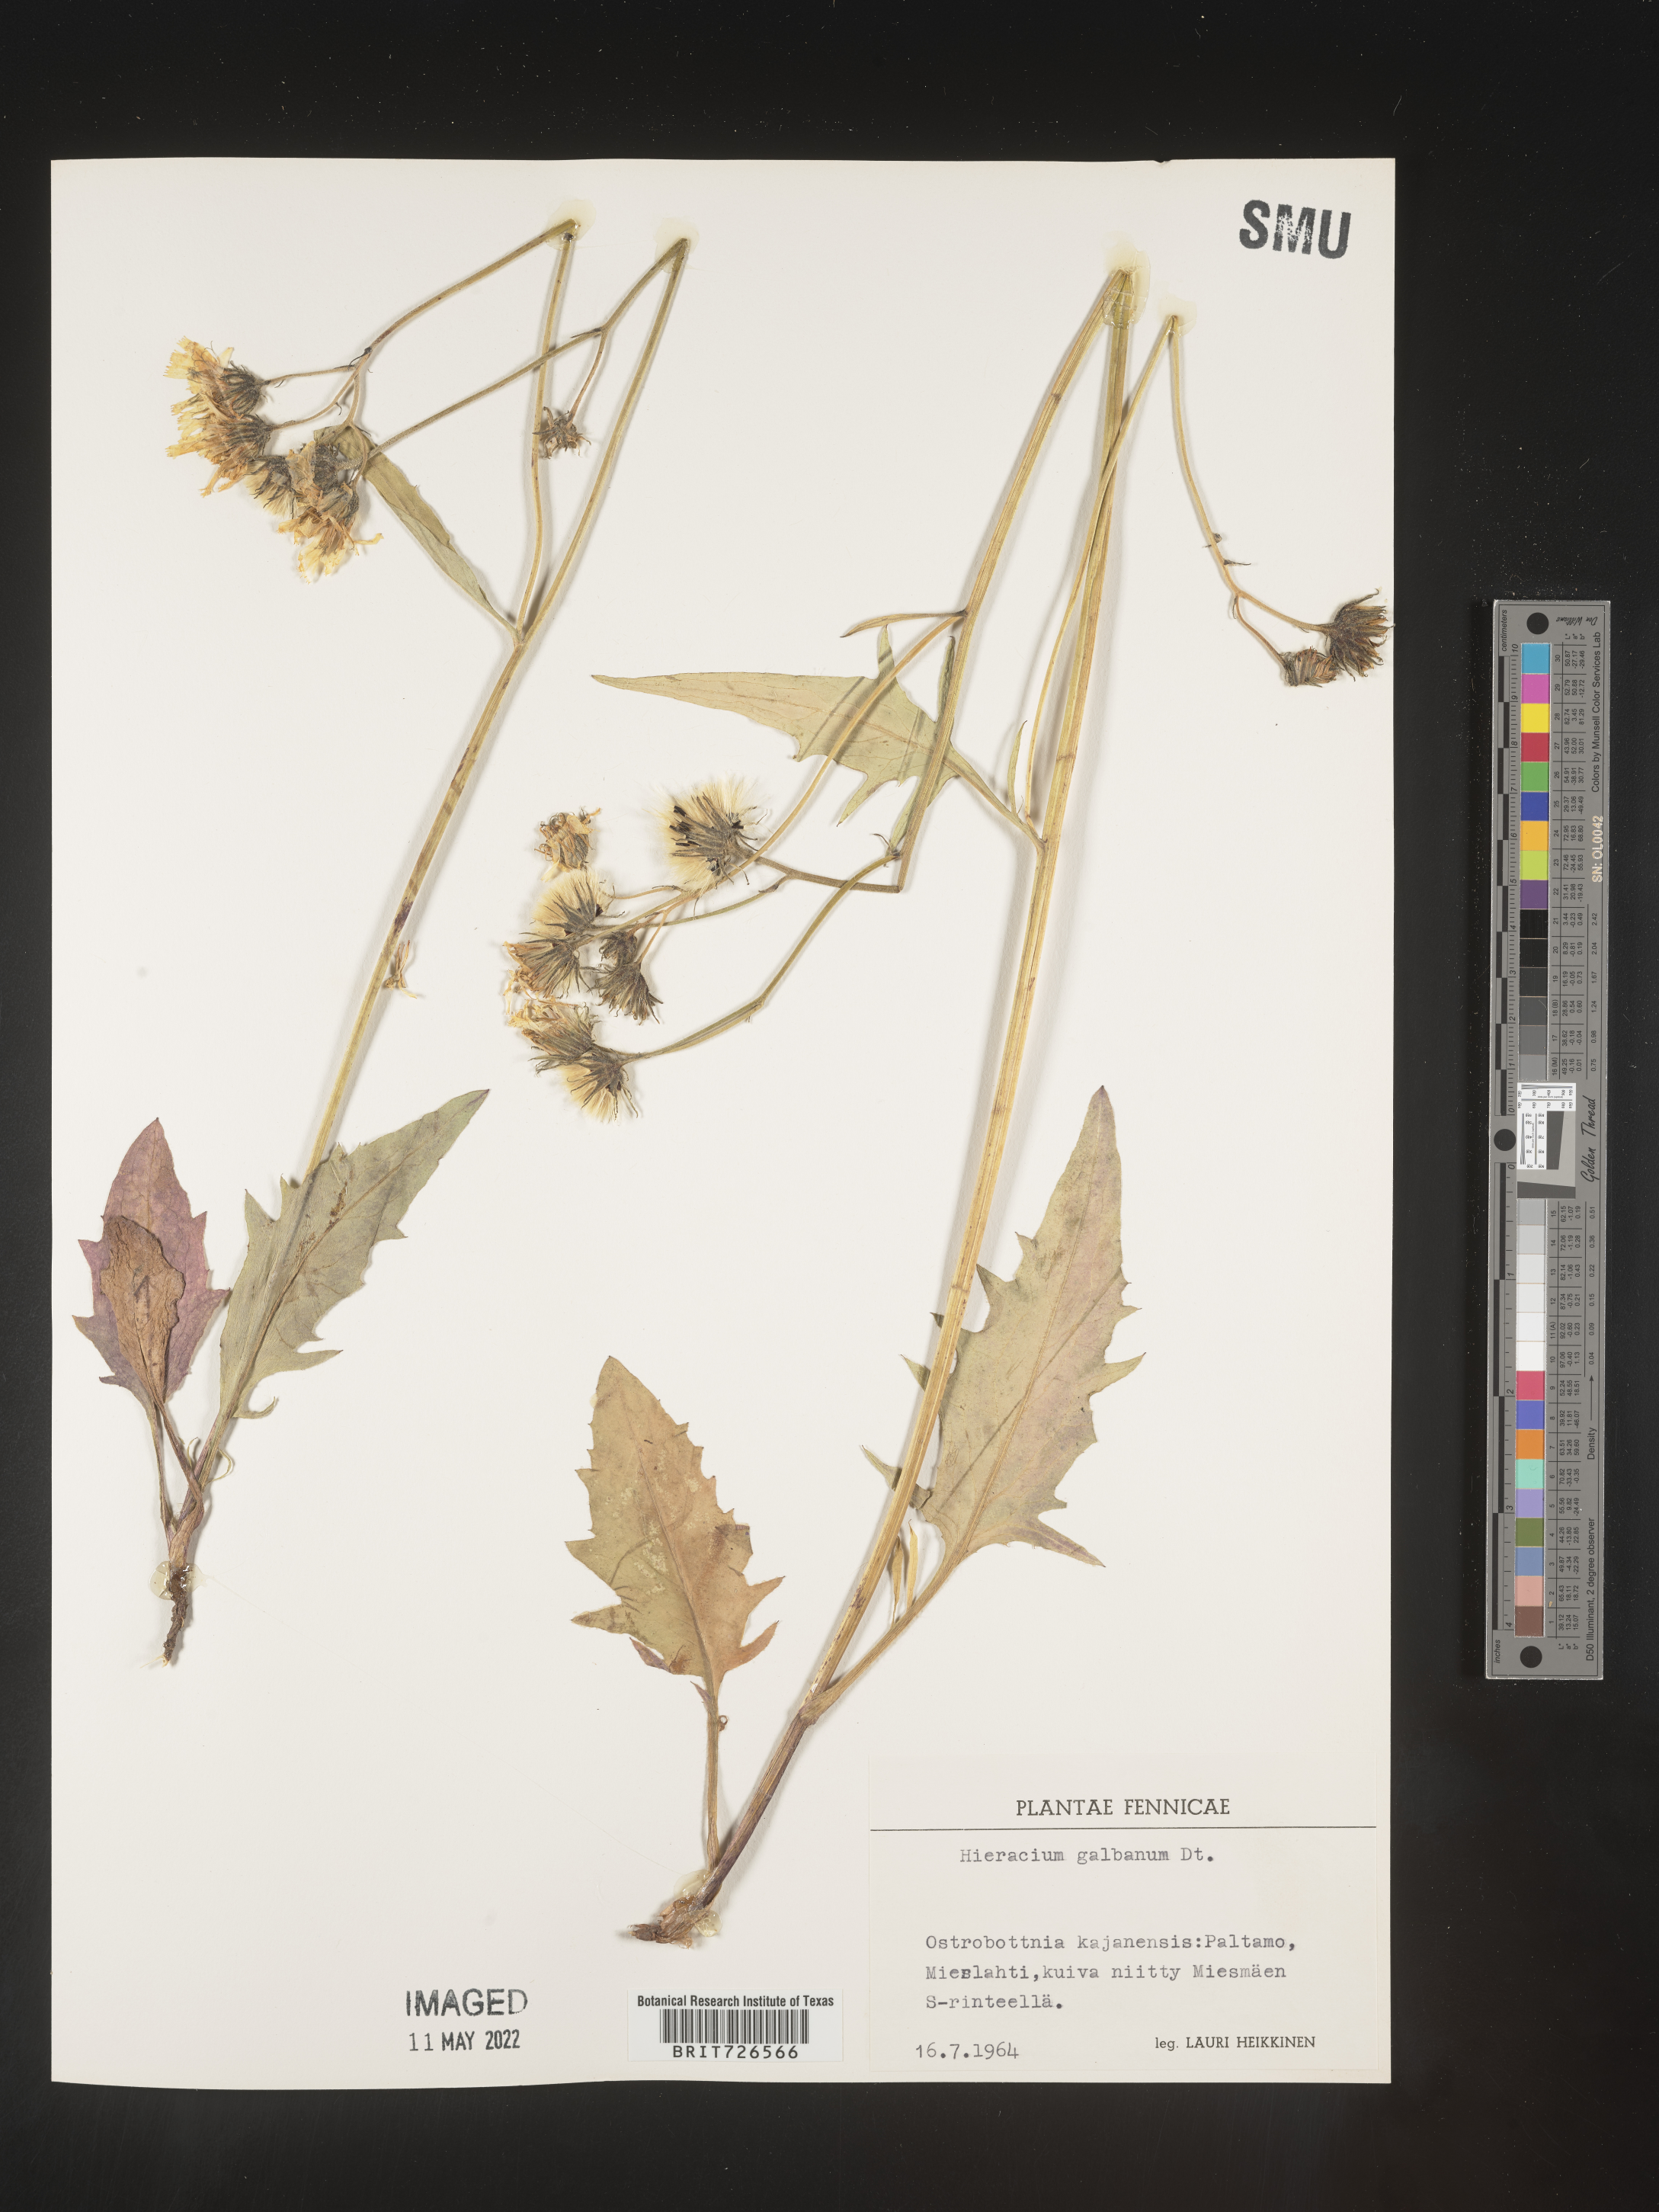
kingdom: Plantae
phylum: Tracheophyta
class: Magnoliopsida
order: Asterales
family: Asteraceae
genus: Hieracium
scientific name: Hieracium
